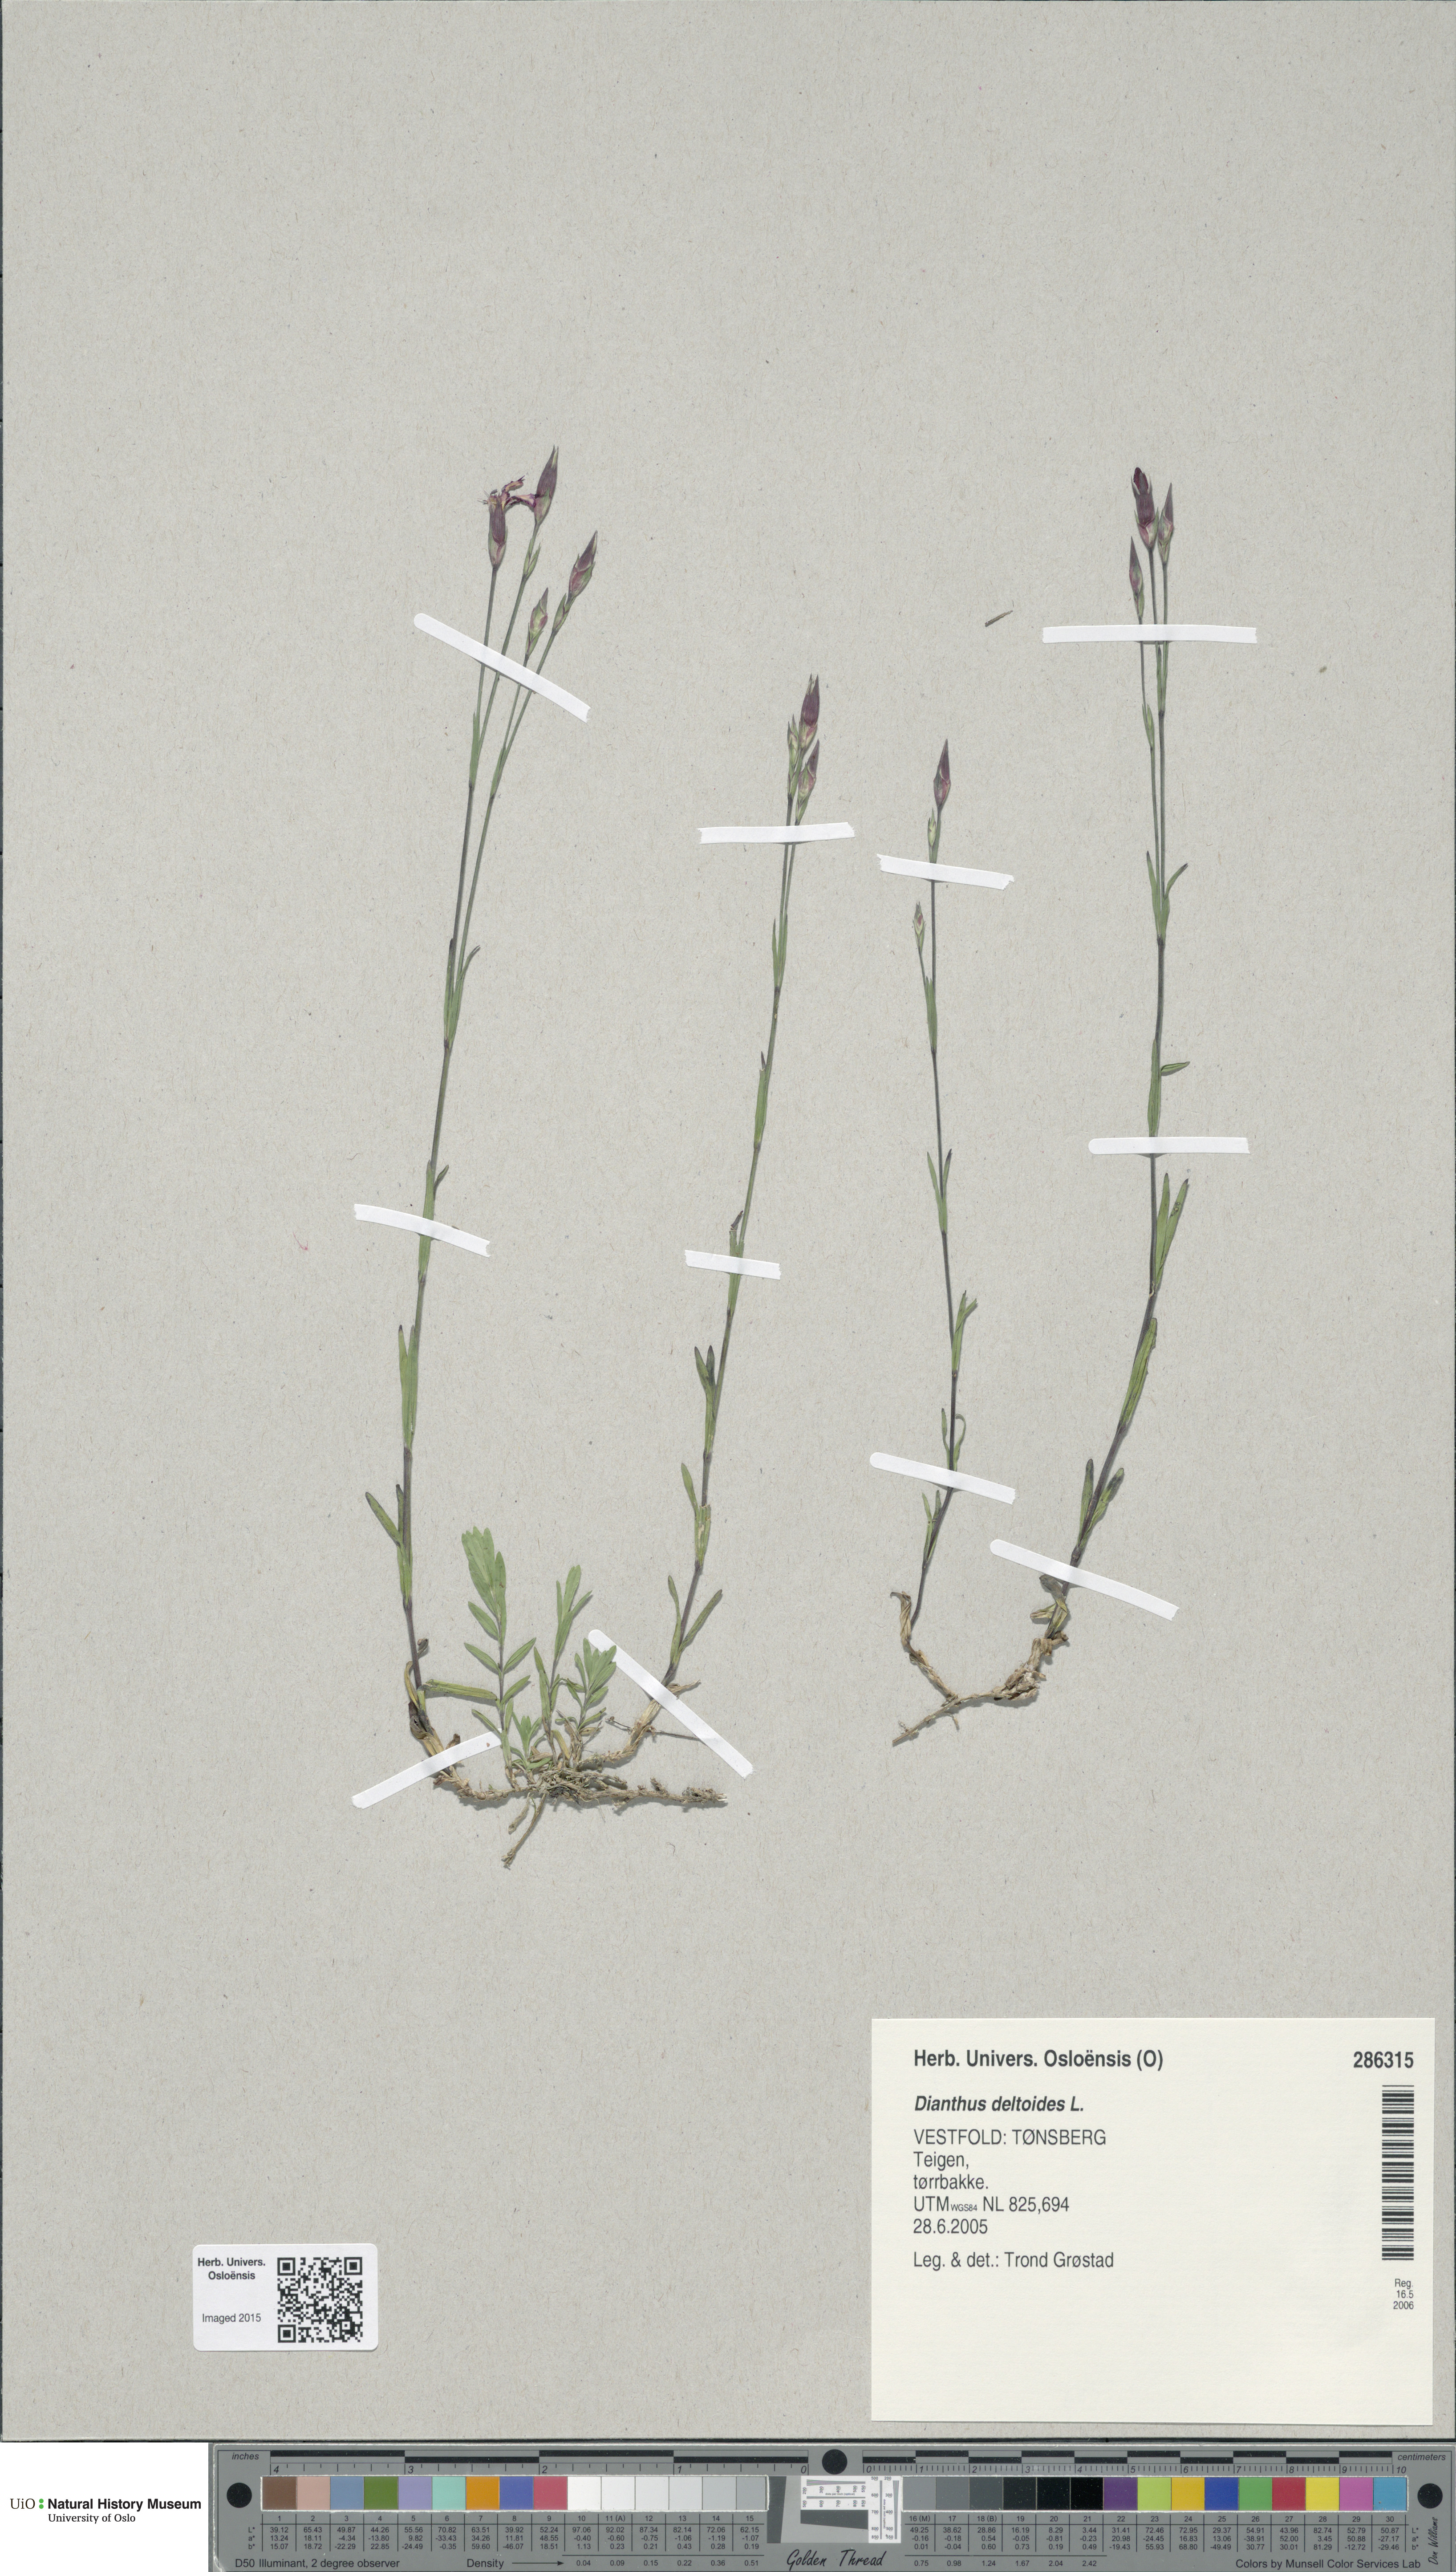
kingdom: Plantae
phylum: Tracheophyta
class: Magnoliopsida
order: Caryophyllales
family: Caryophyllaceae
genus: Dianthus
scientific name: Dianthus deltoides
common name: Maiden pink
